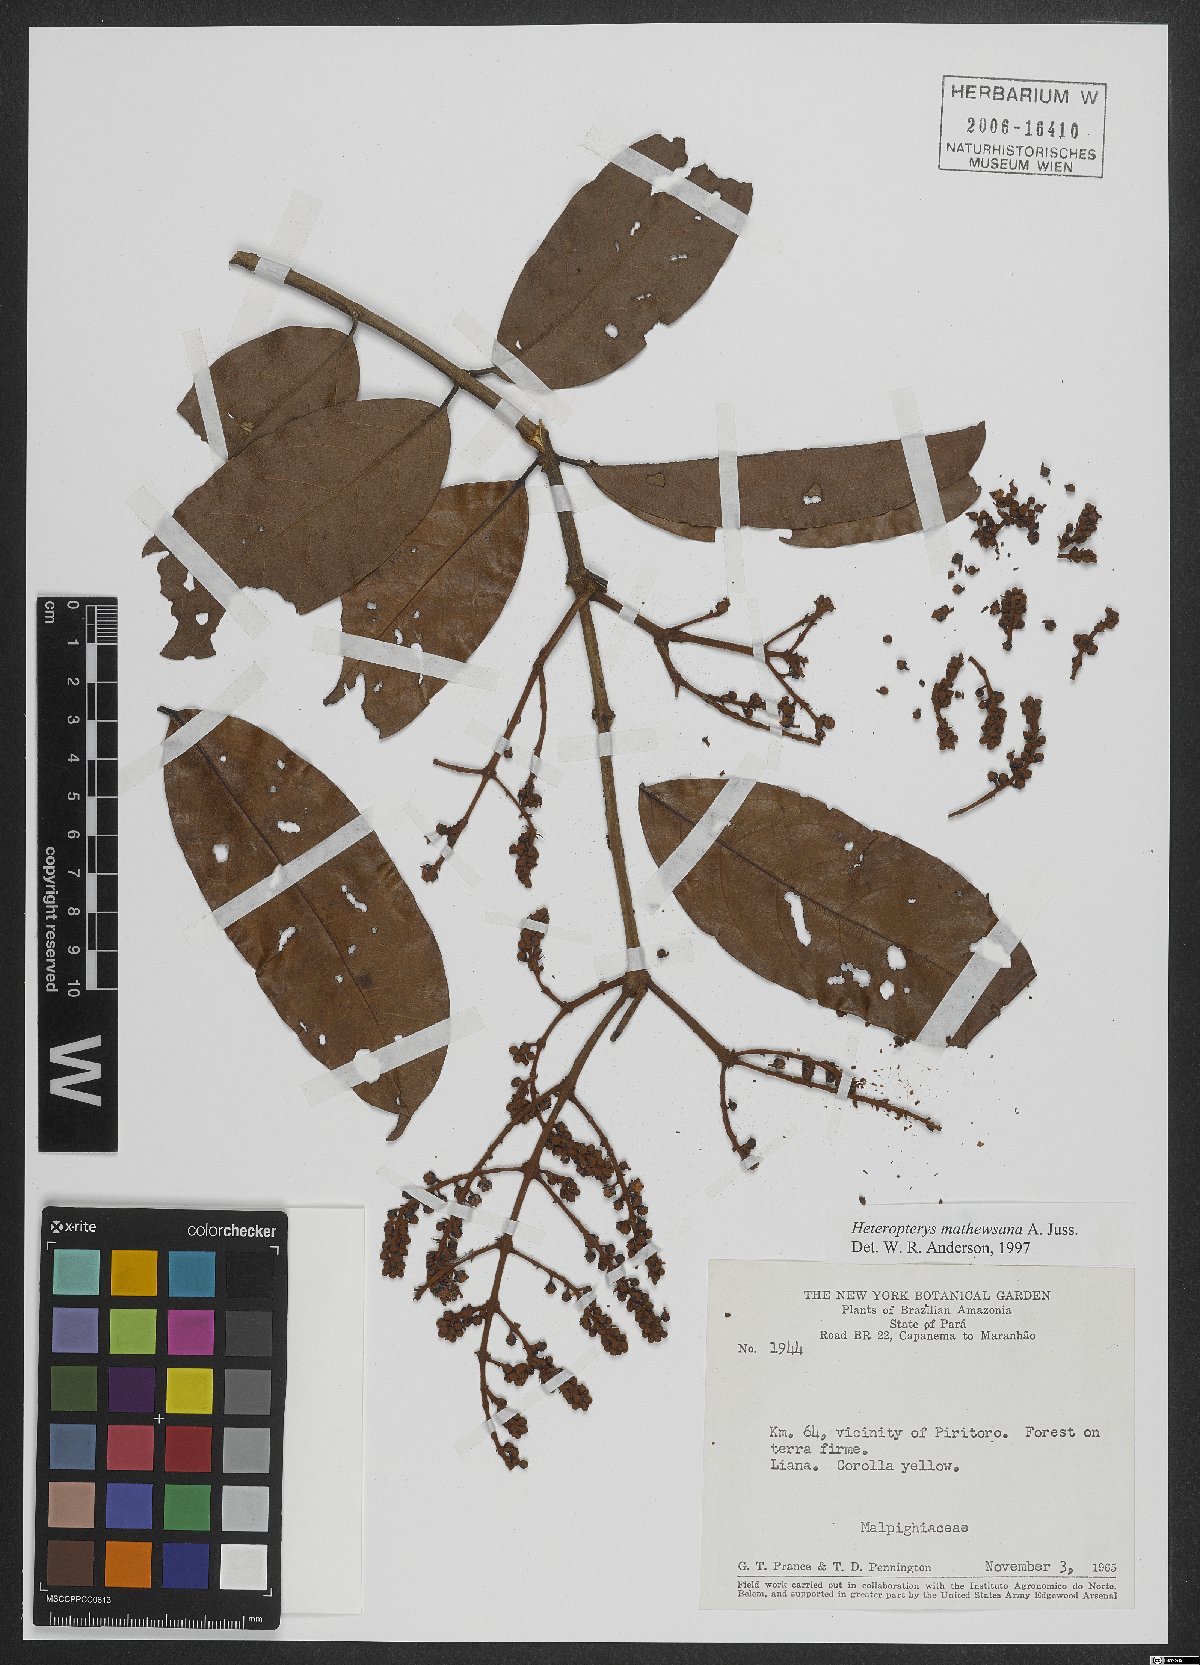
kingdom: Plantae
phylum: Tracheophyta
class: Magnoliopsida
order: Malpighiales
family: Malpighiaceae
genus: Heteropterys
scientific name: Heteropterys mathewsiana
